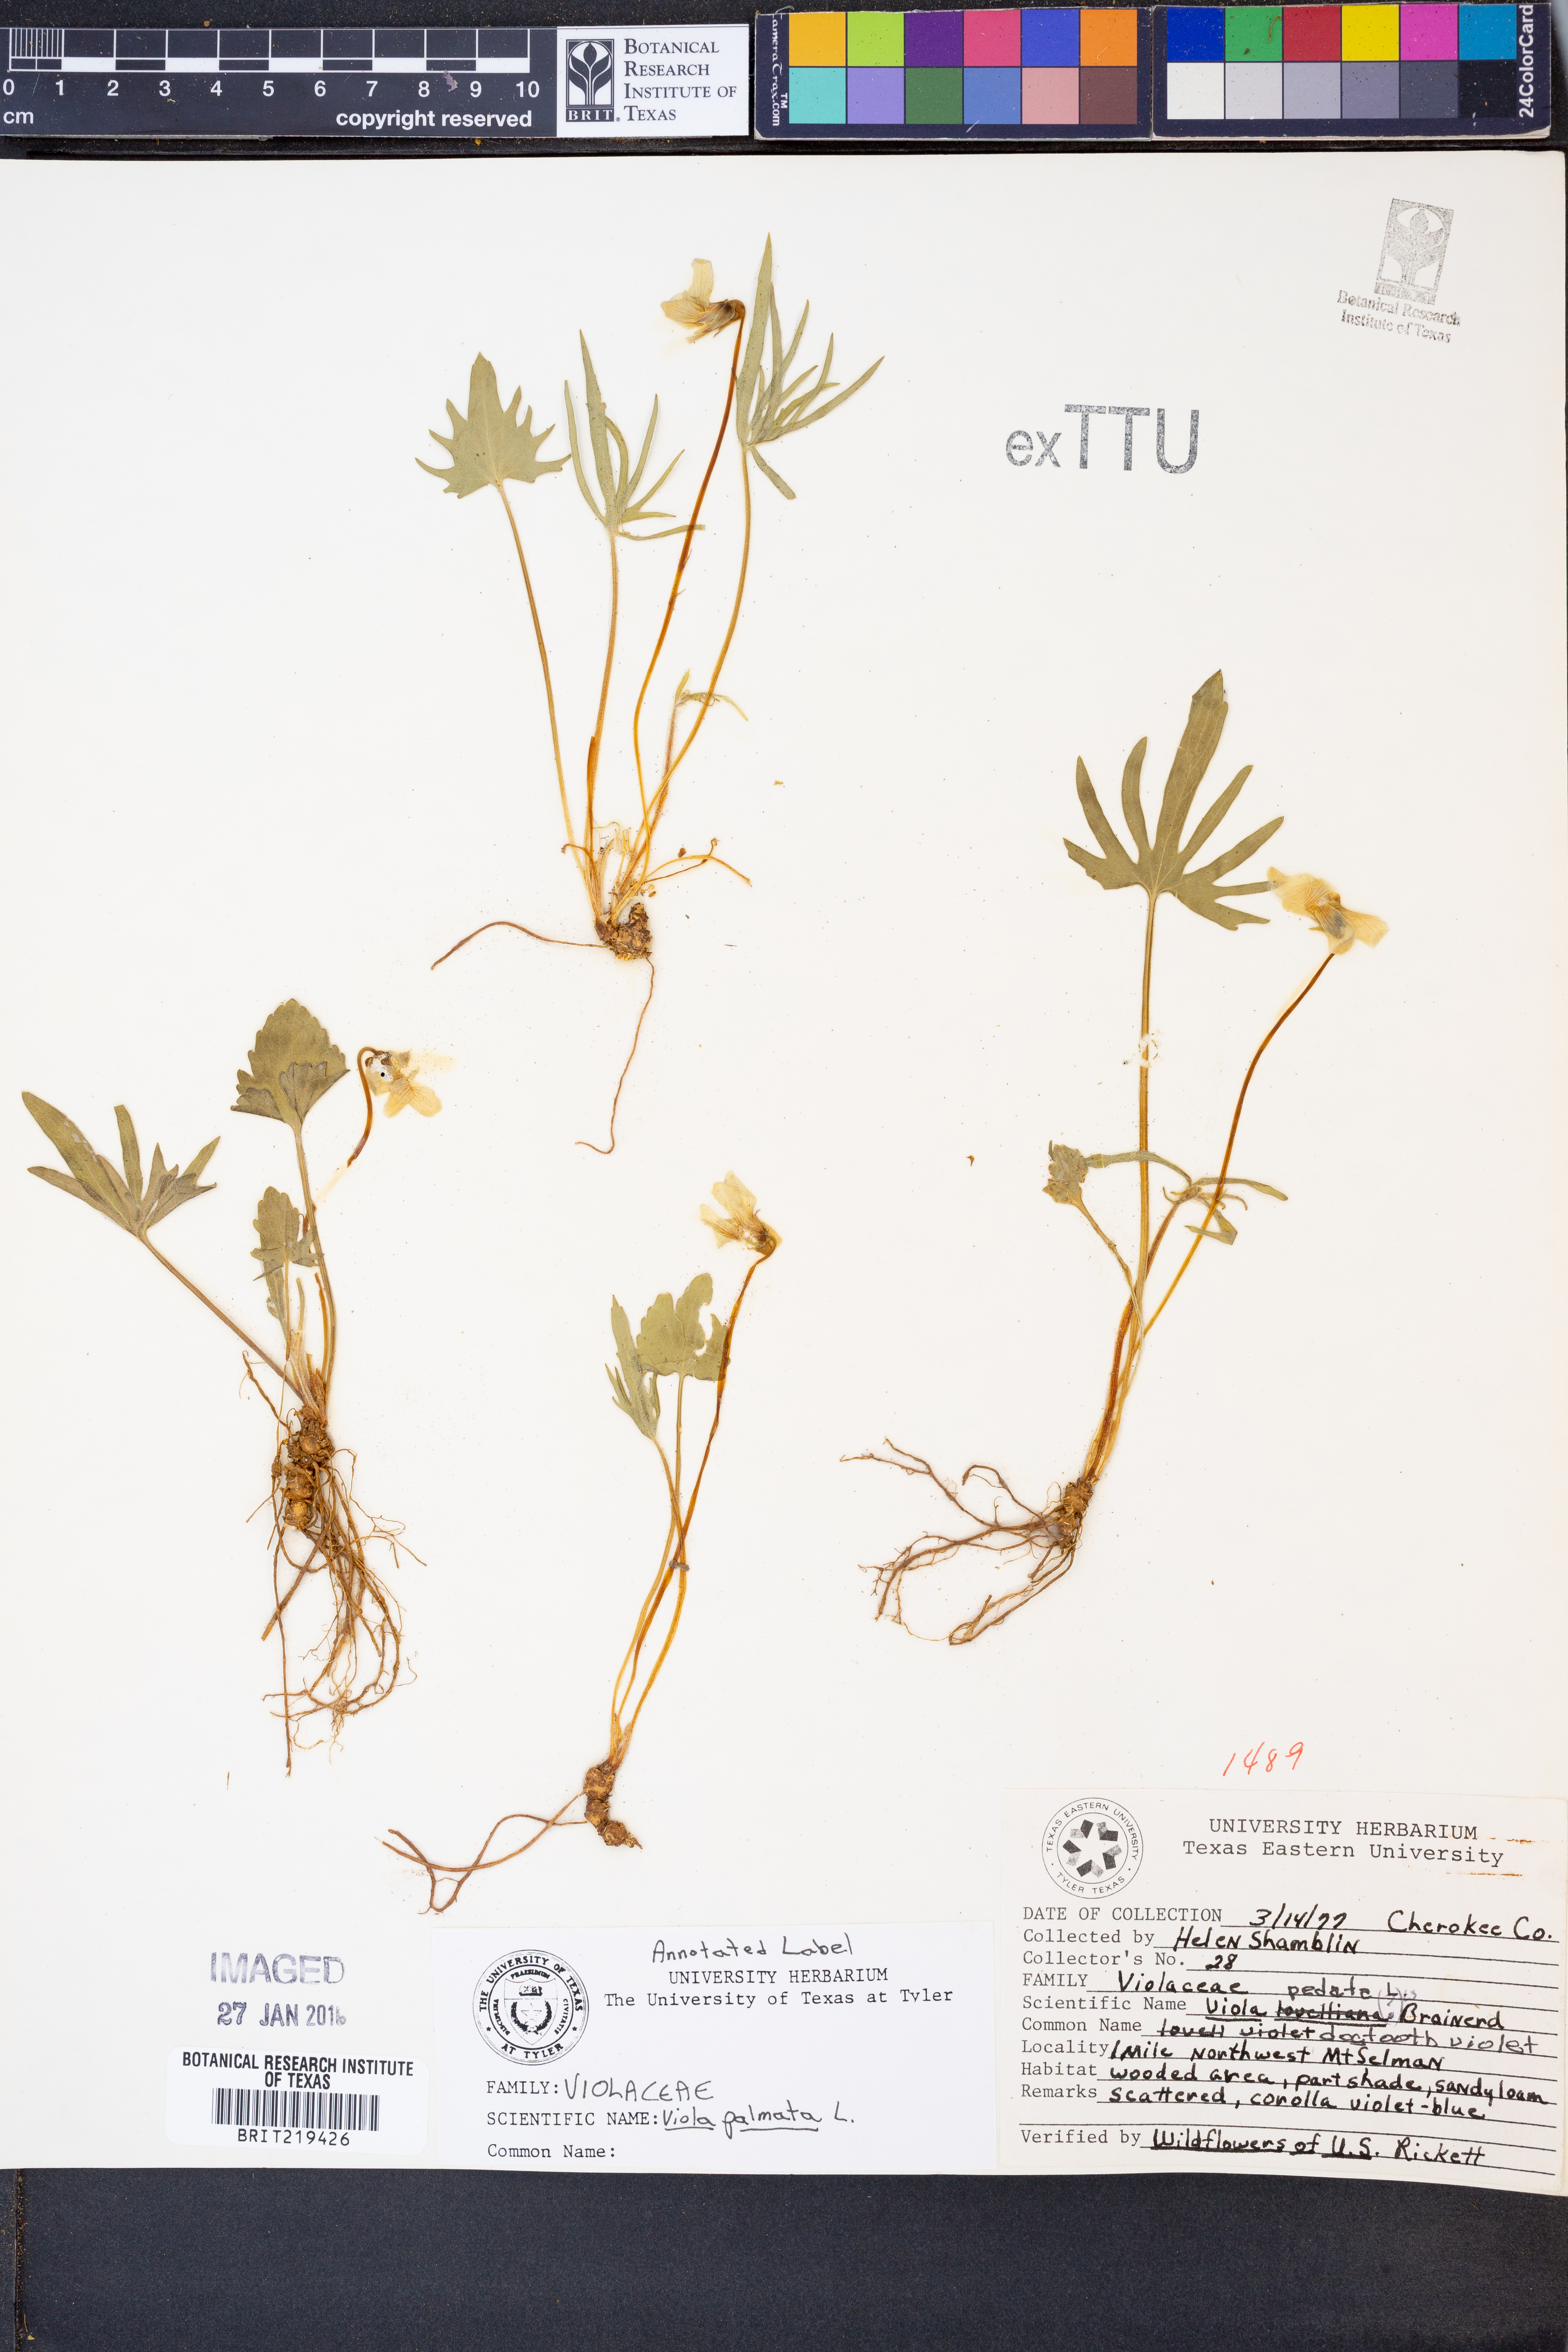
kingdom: Plantae
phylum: Tracheophyta
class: Magnoliopsida
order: Malpighiales
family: Violaceae
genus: Viola
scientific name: Viola palmata
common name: Early blue violet
